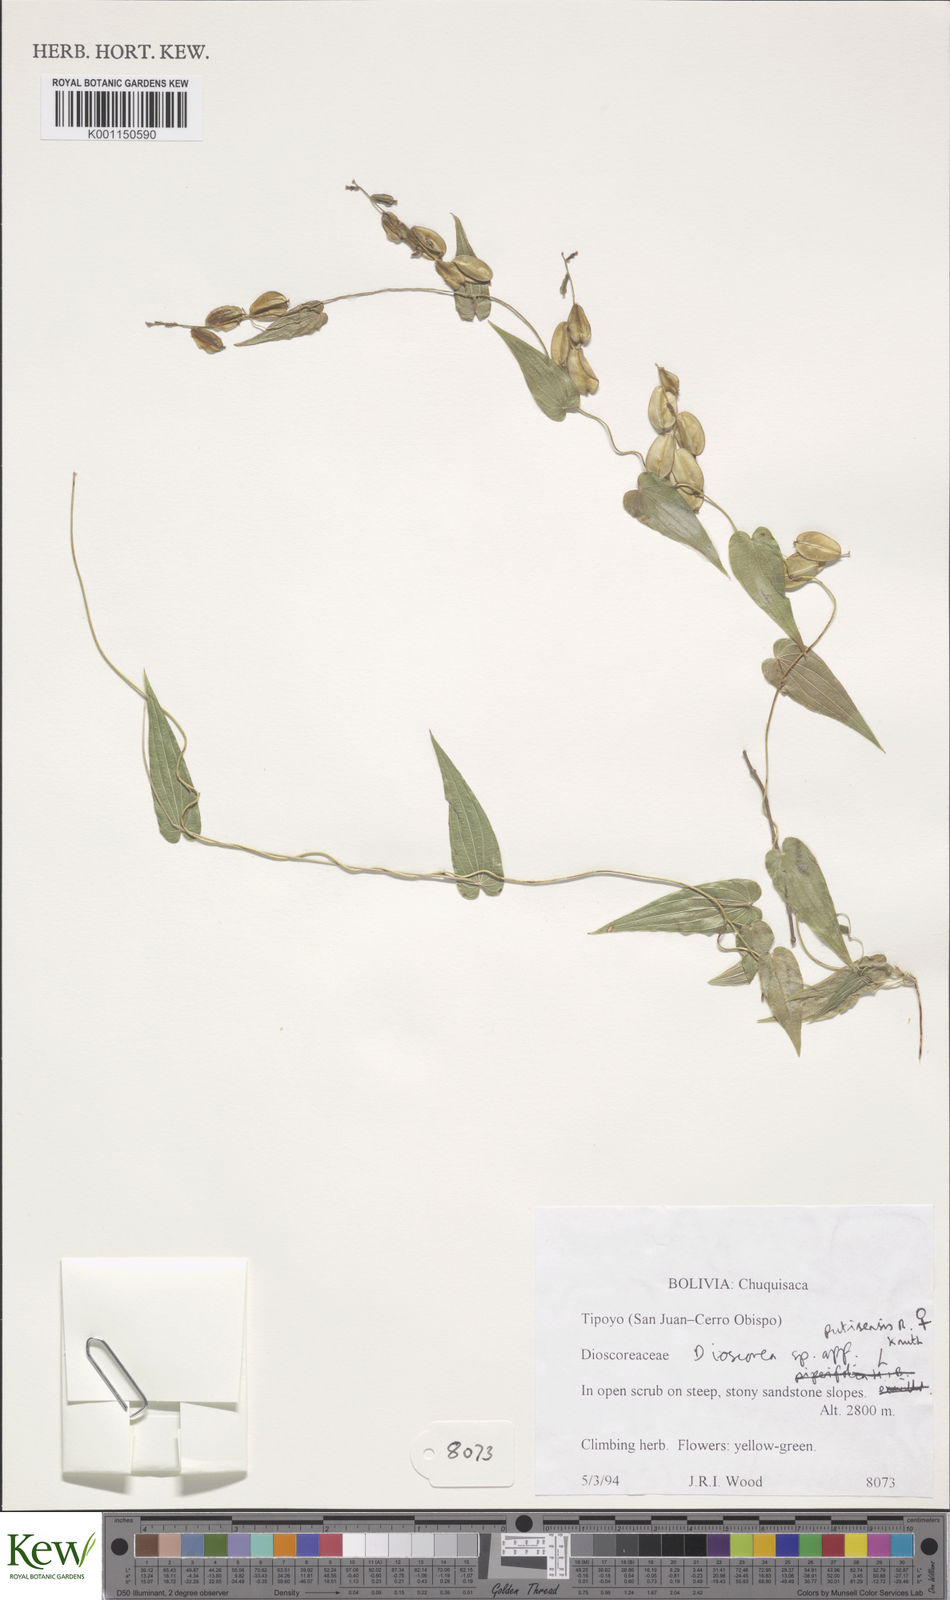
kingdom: Plantae
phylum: Tracheophyta
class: Liliopsida
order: Dioscoreales
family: Dioscoreaceae
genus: Dioscorea
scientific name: Dioscorea putisensis
